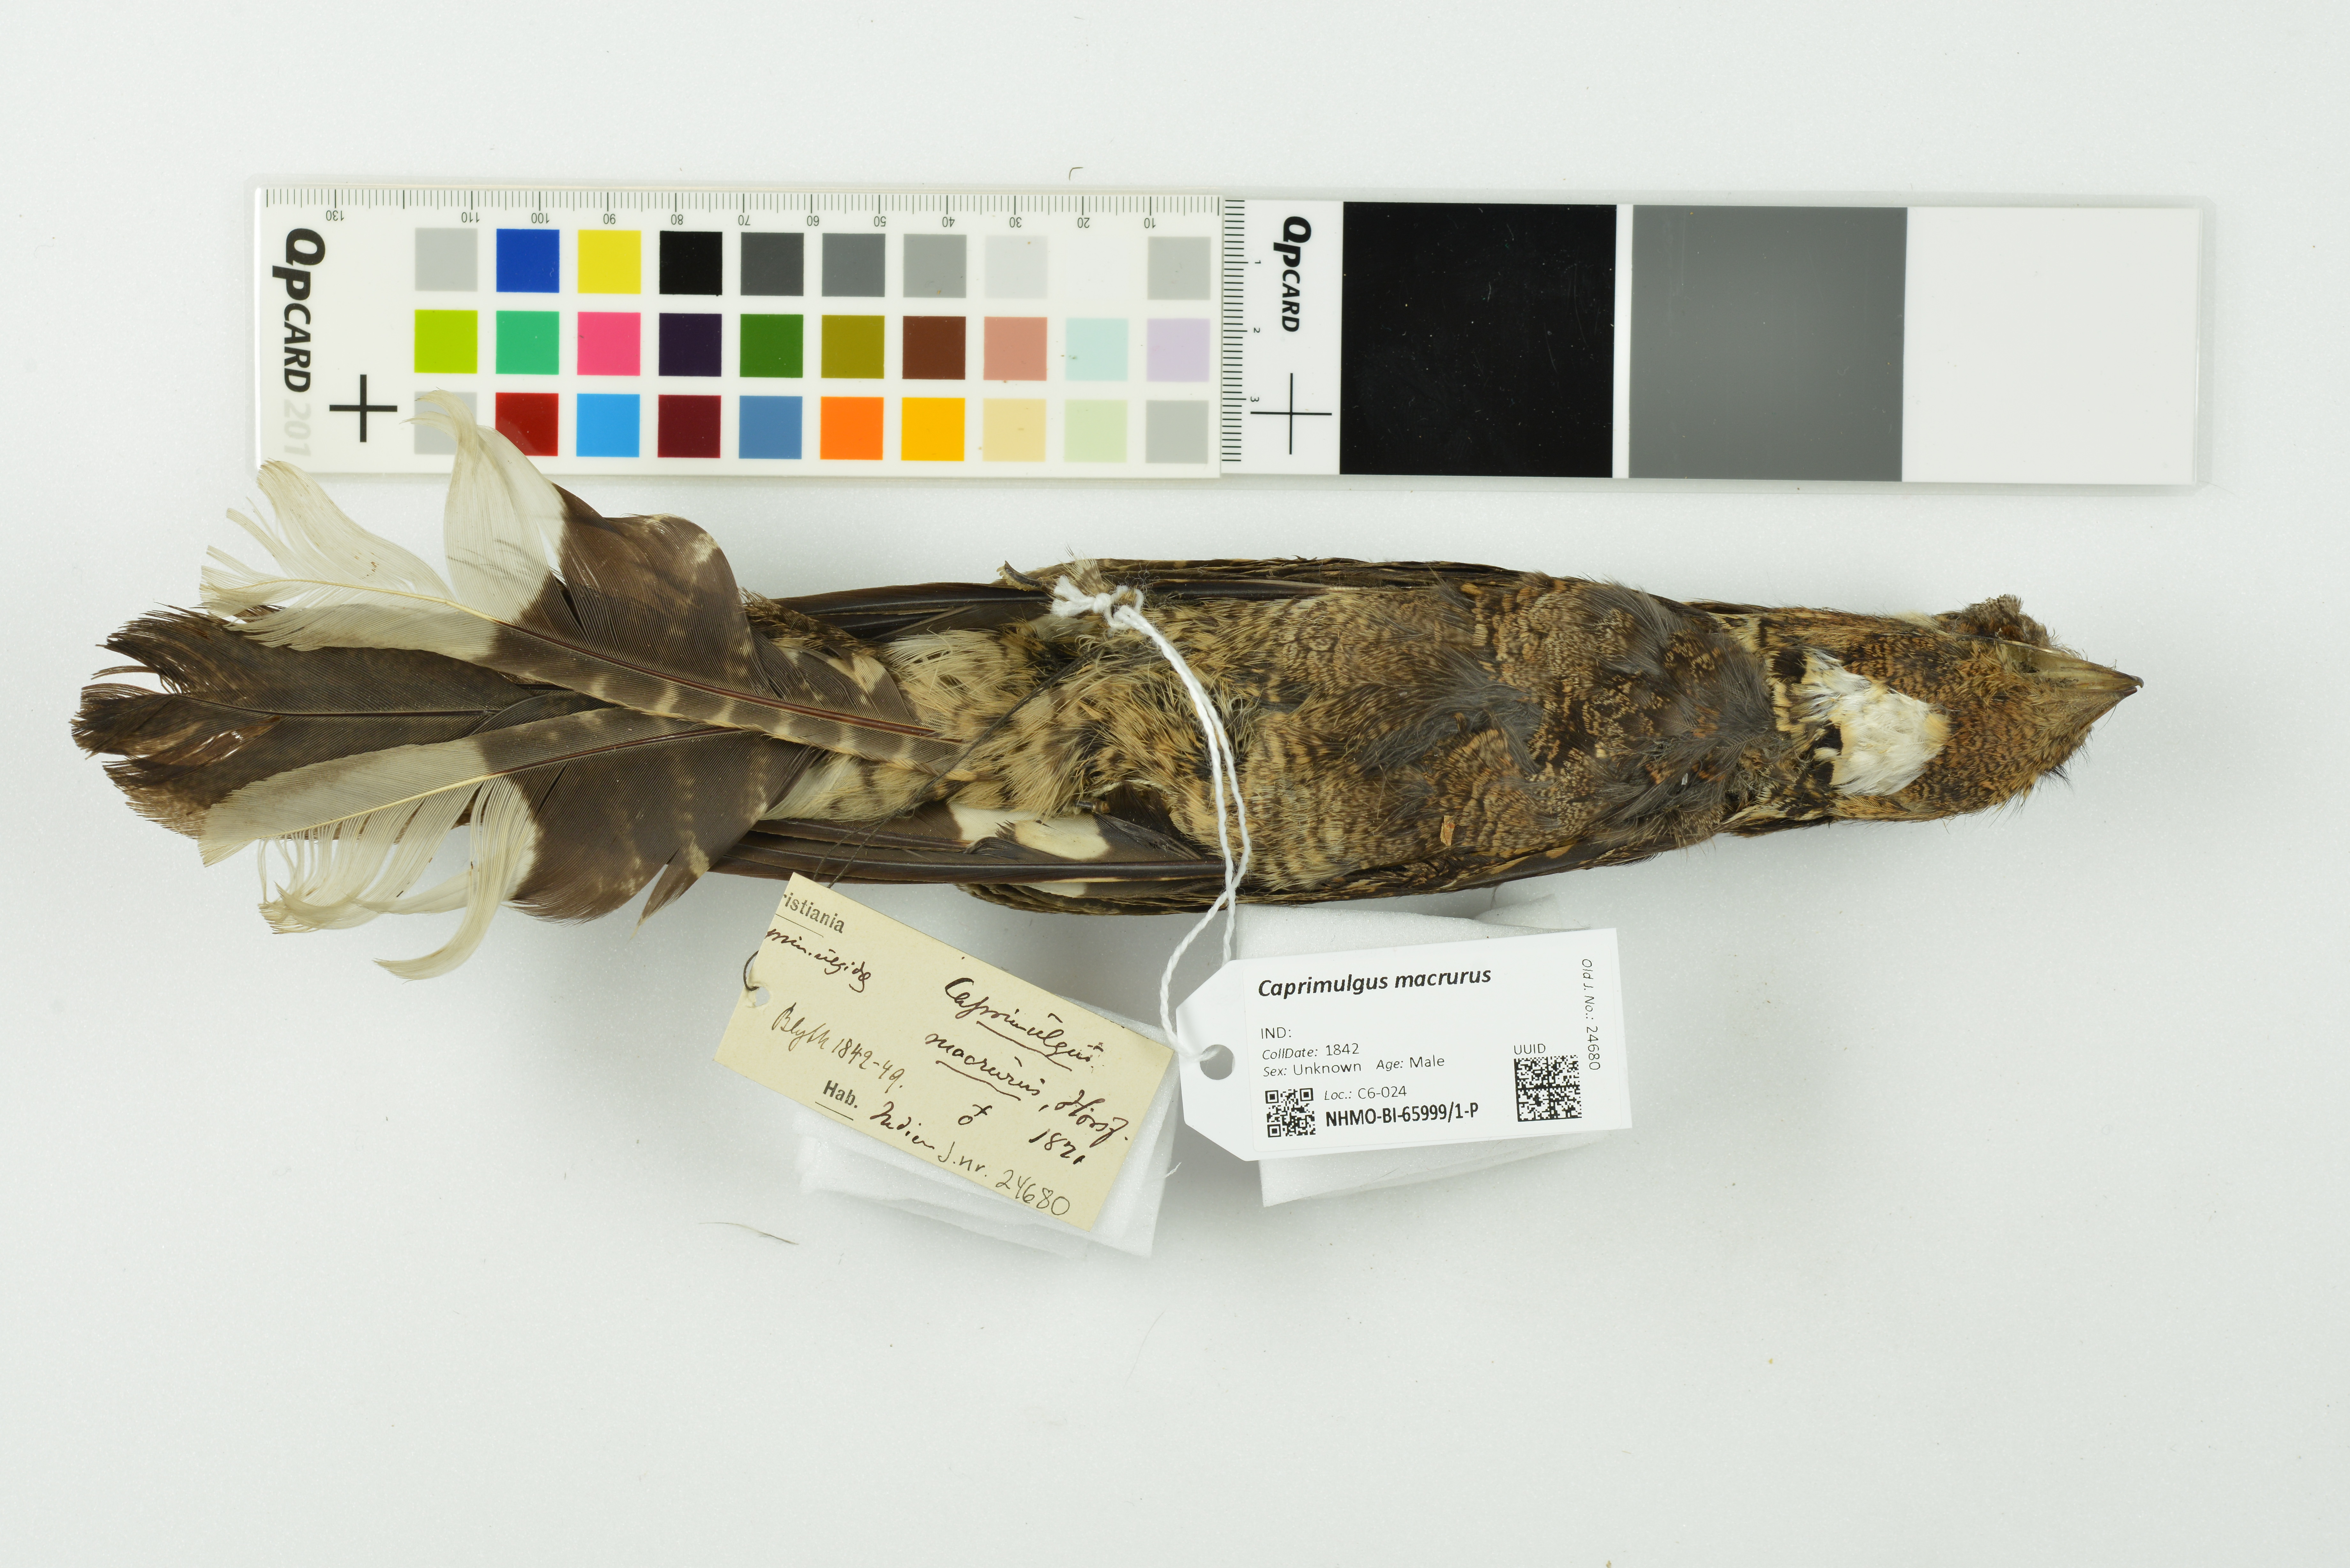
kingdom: Animalia
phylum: Chordata
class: Aves
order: Caprimulgiformes
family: Caprimulgidae
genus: Caprimulgus
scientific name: Caprimulgus macrurus
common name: Large-tailed nightjar
